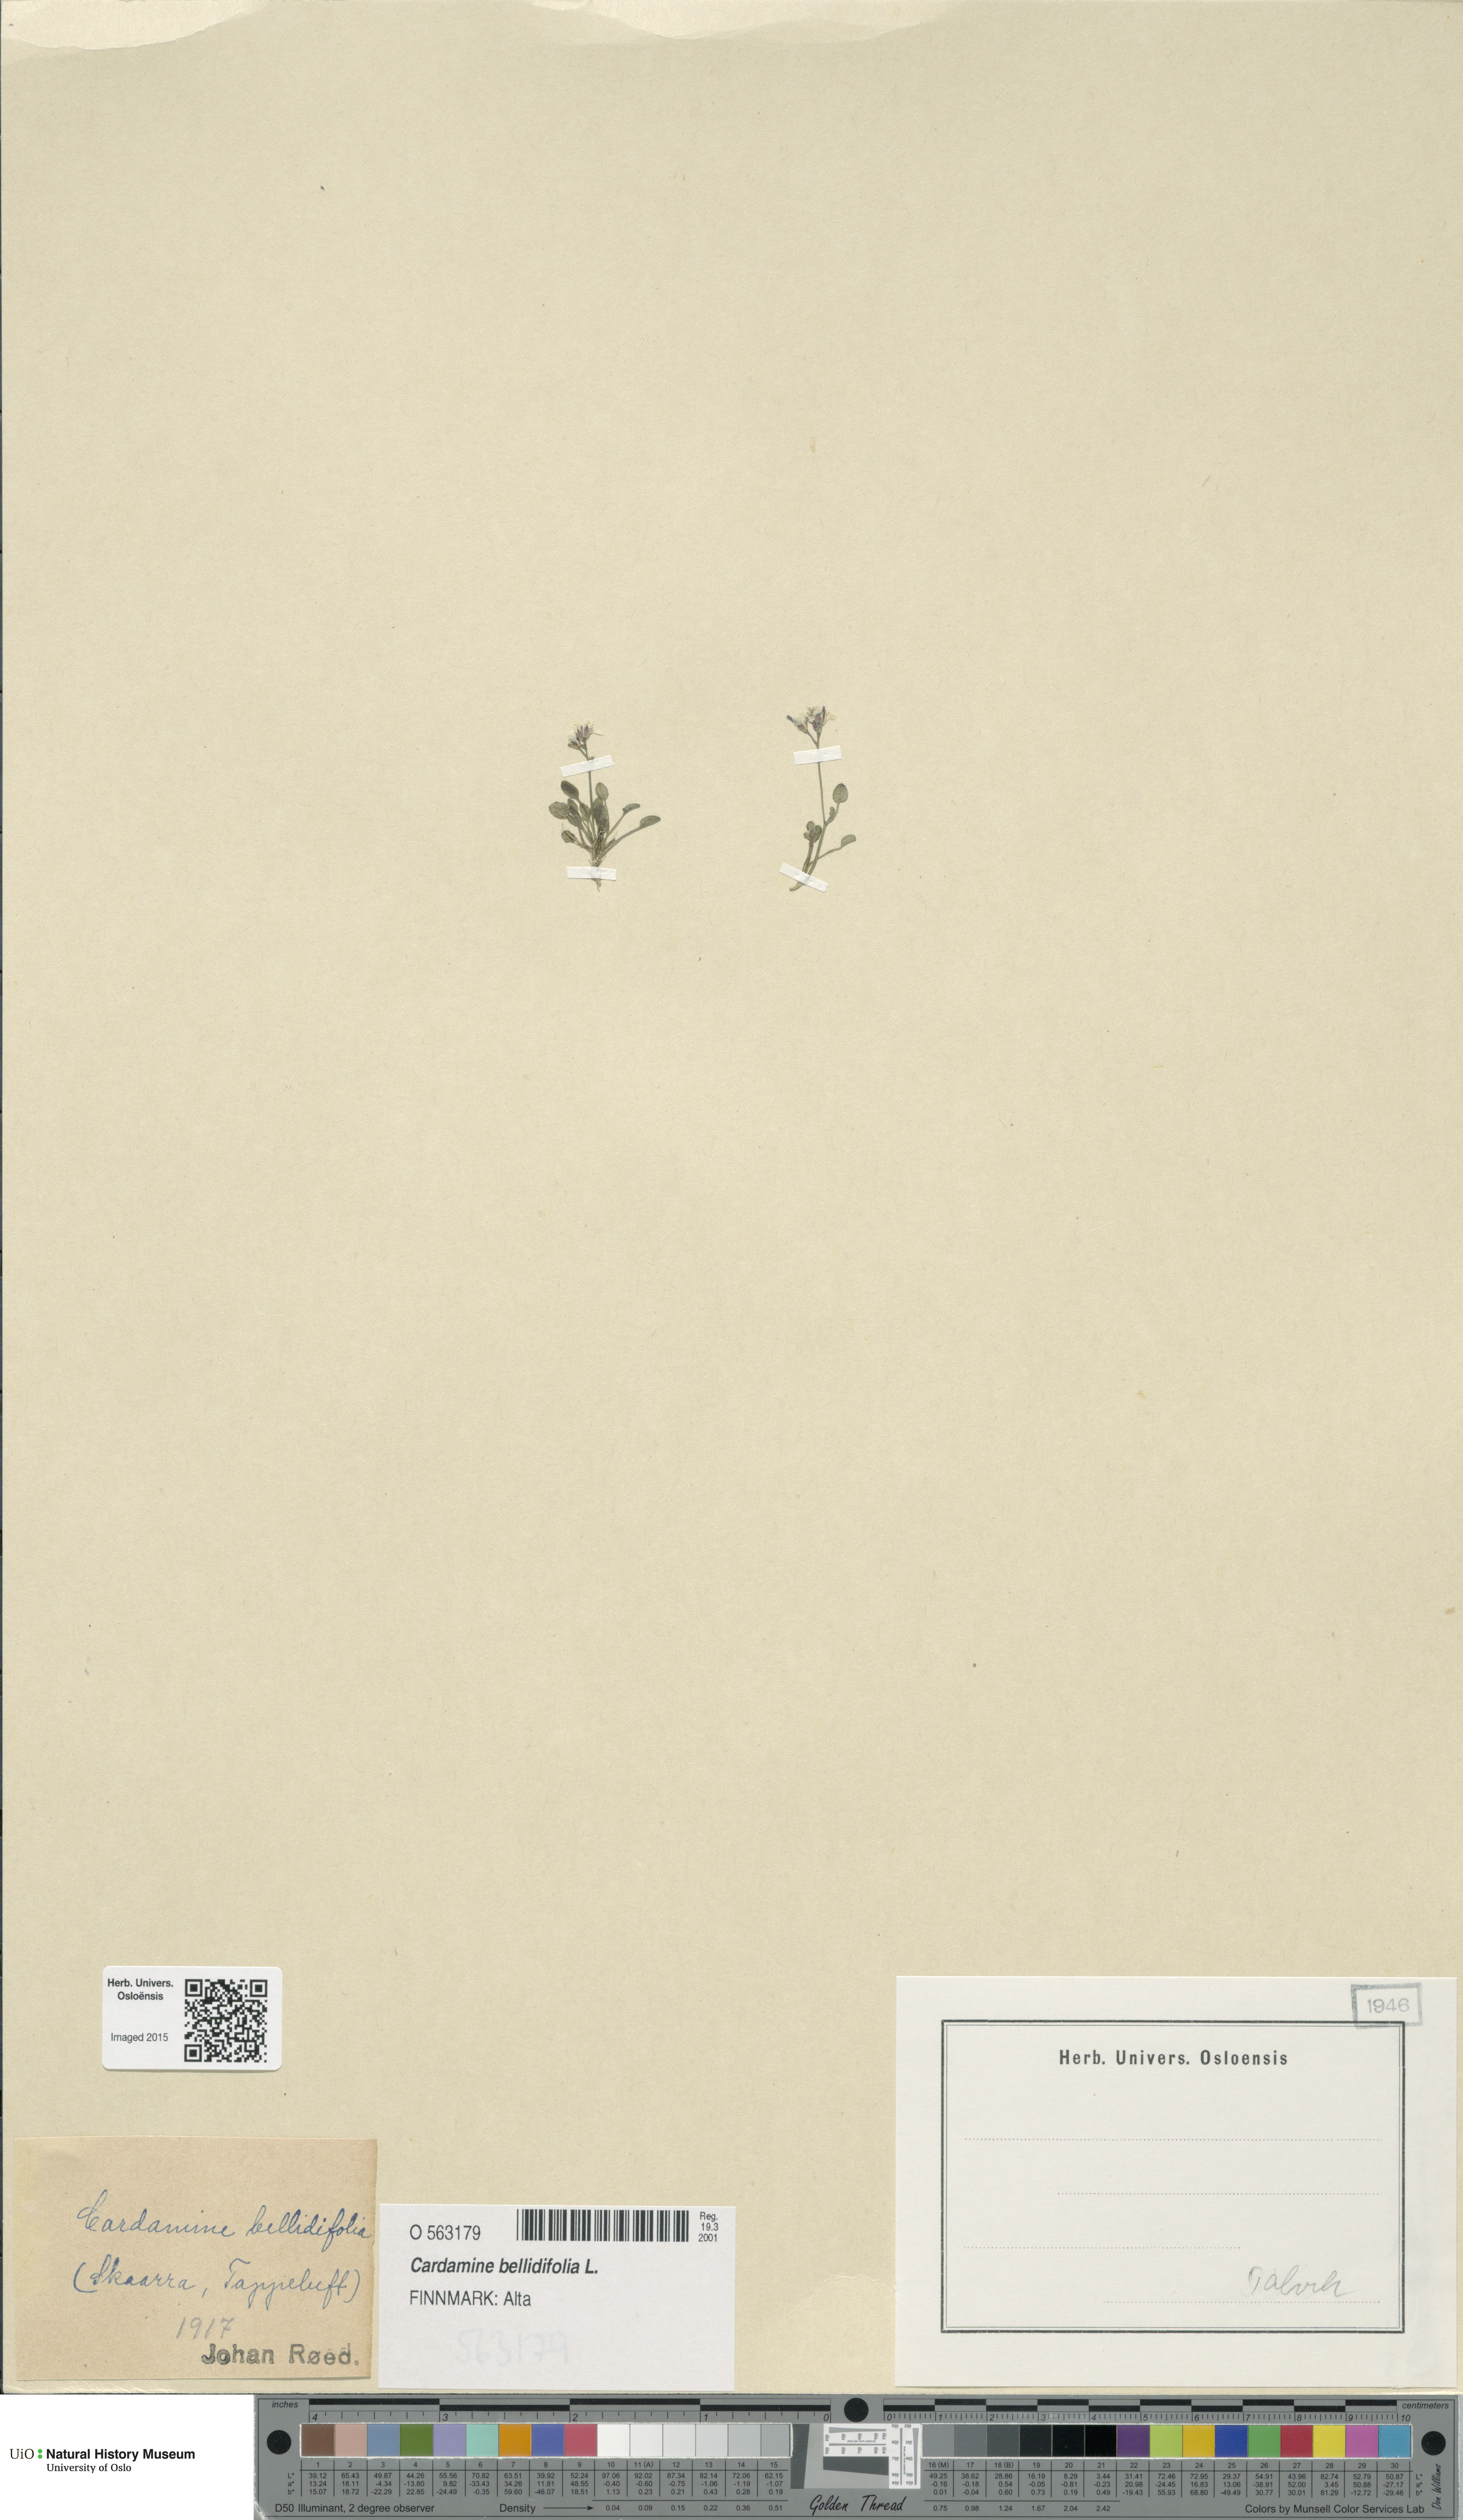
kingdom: Plantae
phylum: Tracheophyta
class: Magnoliopsida
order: Brassicales
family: Brassicaceae
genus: Cardamine
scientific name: Cardamine bellidifolia
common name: Alpine bittercress
